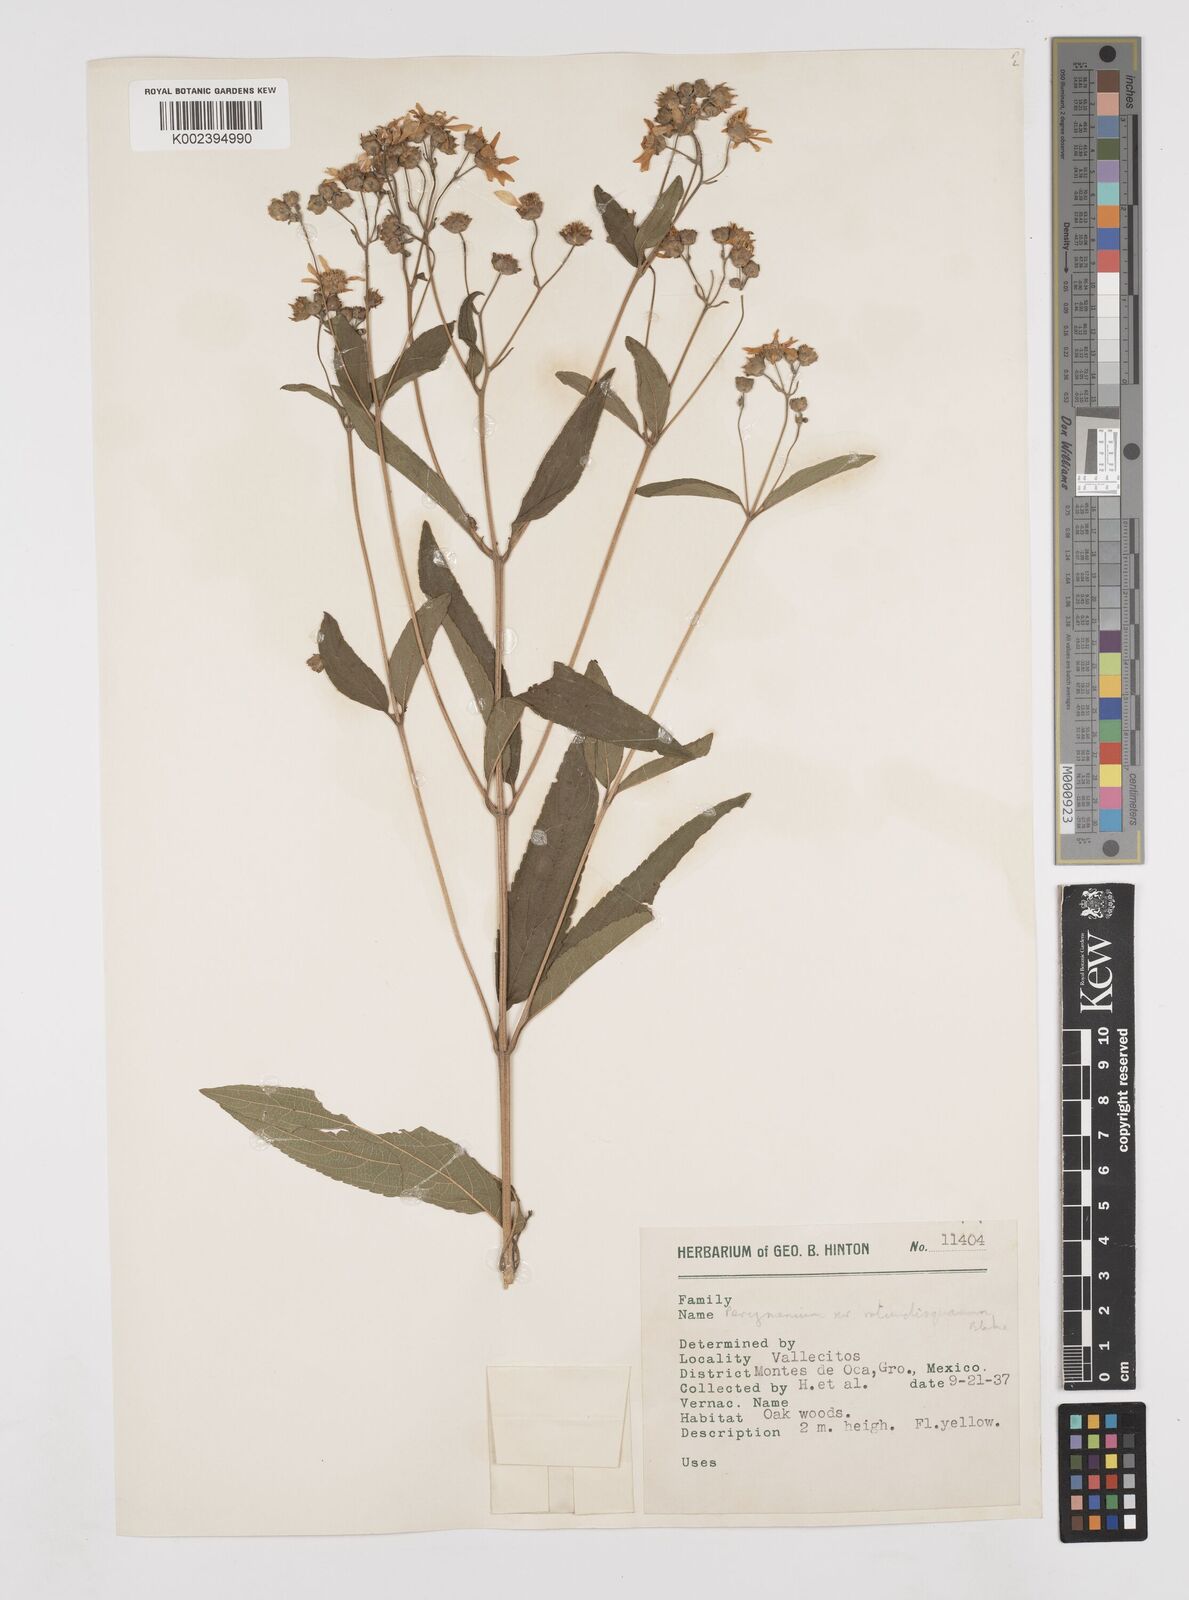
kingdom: Plantae
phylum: Tracheophyta
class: Magnoliopsida
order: Asterales
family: Asteraceae
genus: Perymenium
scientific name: Perymenium globosum
